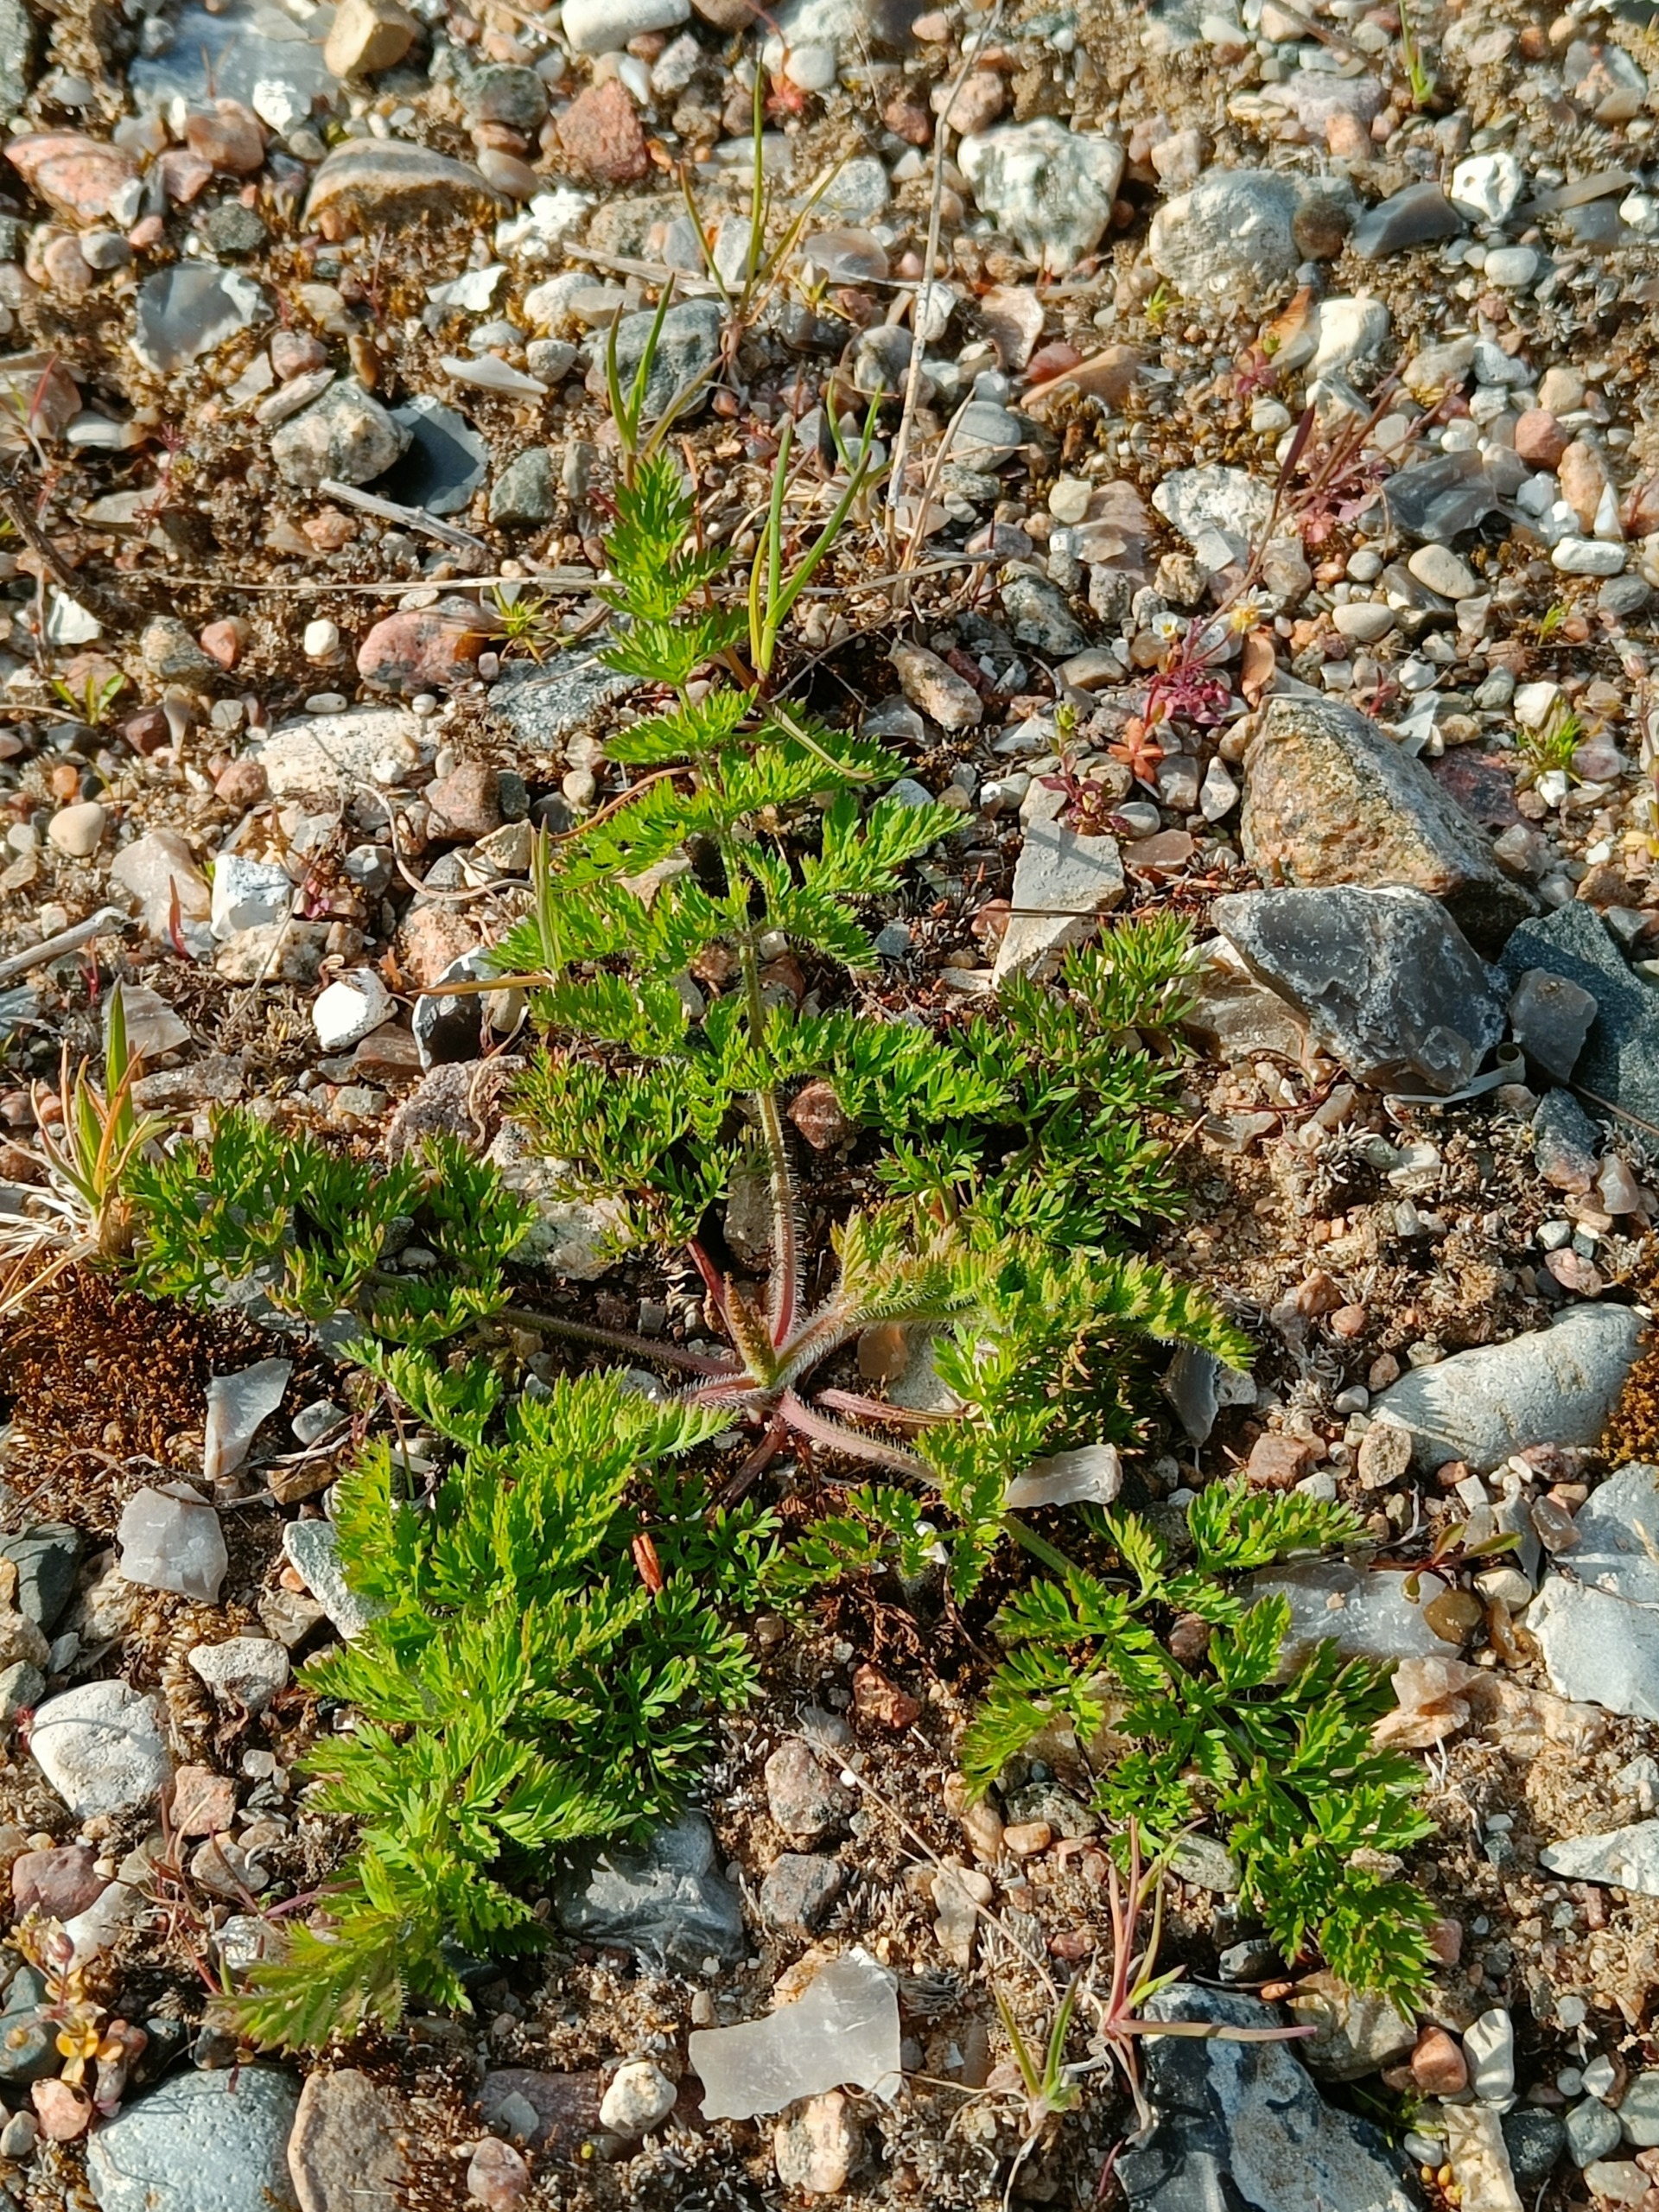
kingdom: Plantae
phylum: Tracheophyta
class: Magnoliopsida
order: Apiales
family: Apiaceae
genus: Daucus
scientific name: Daucus carota
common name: Vild gulerod
